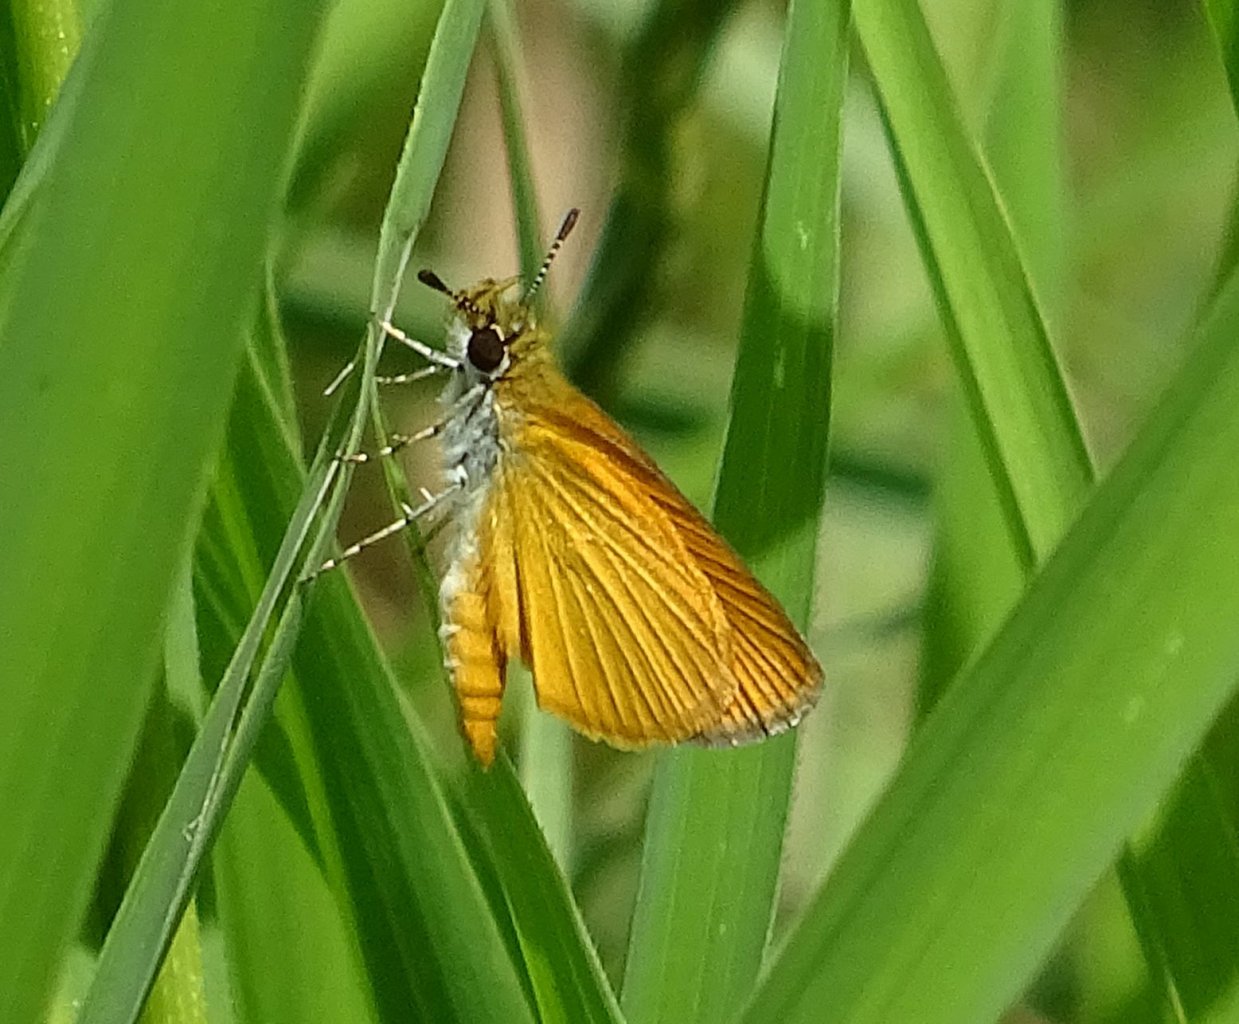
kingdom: Animalia
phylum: Arthropoda
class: Insecta
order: Lepidoptera
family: Hesperiidae
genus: Ancyloxypha
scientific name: Ancyloxypha numitor
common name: Least Skipper
